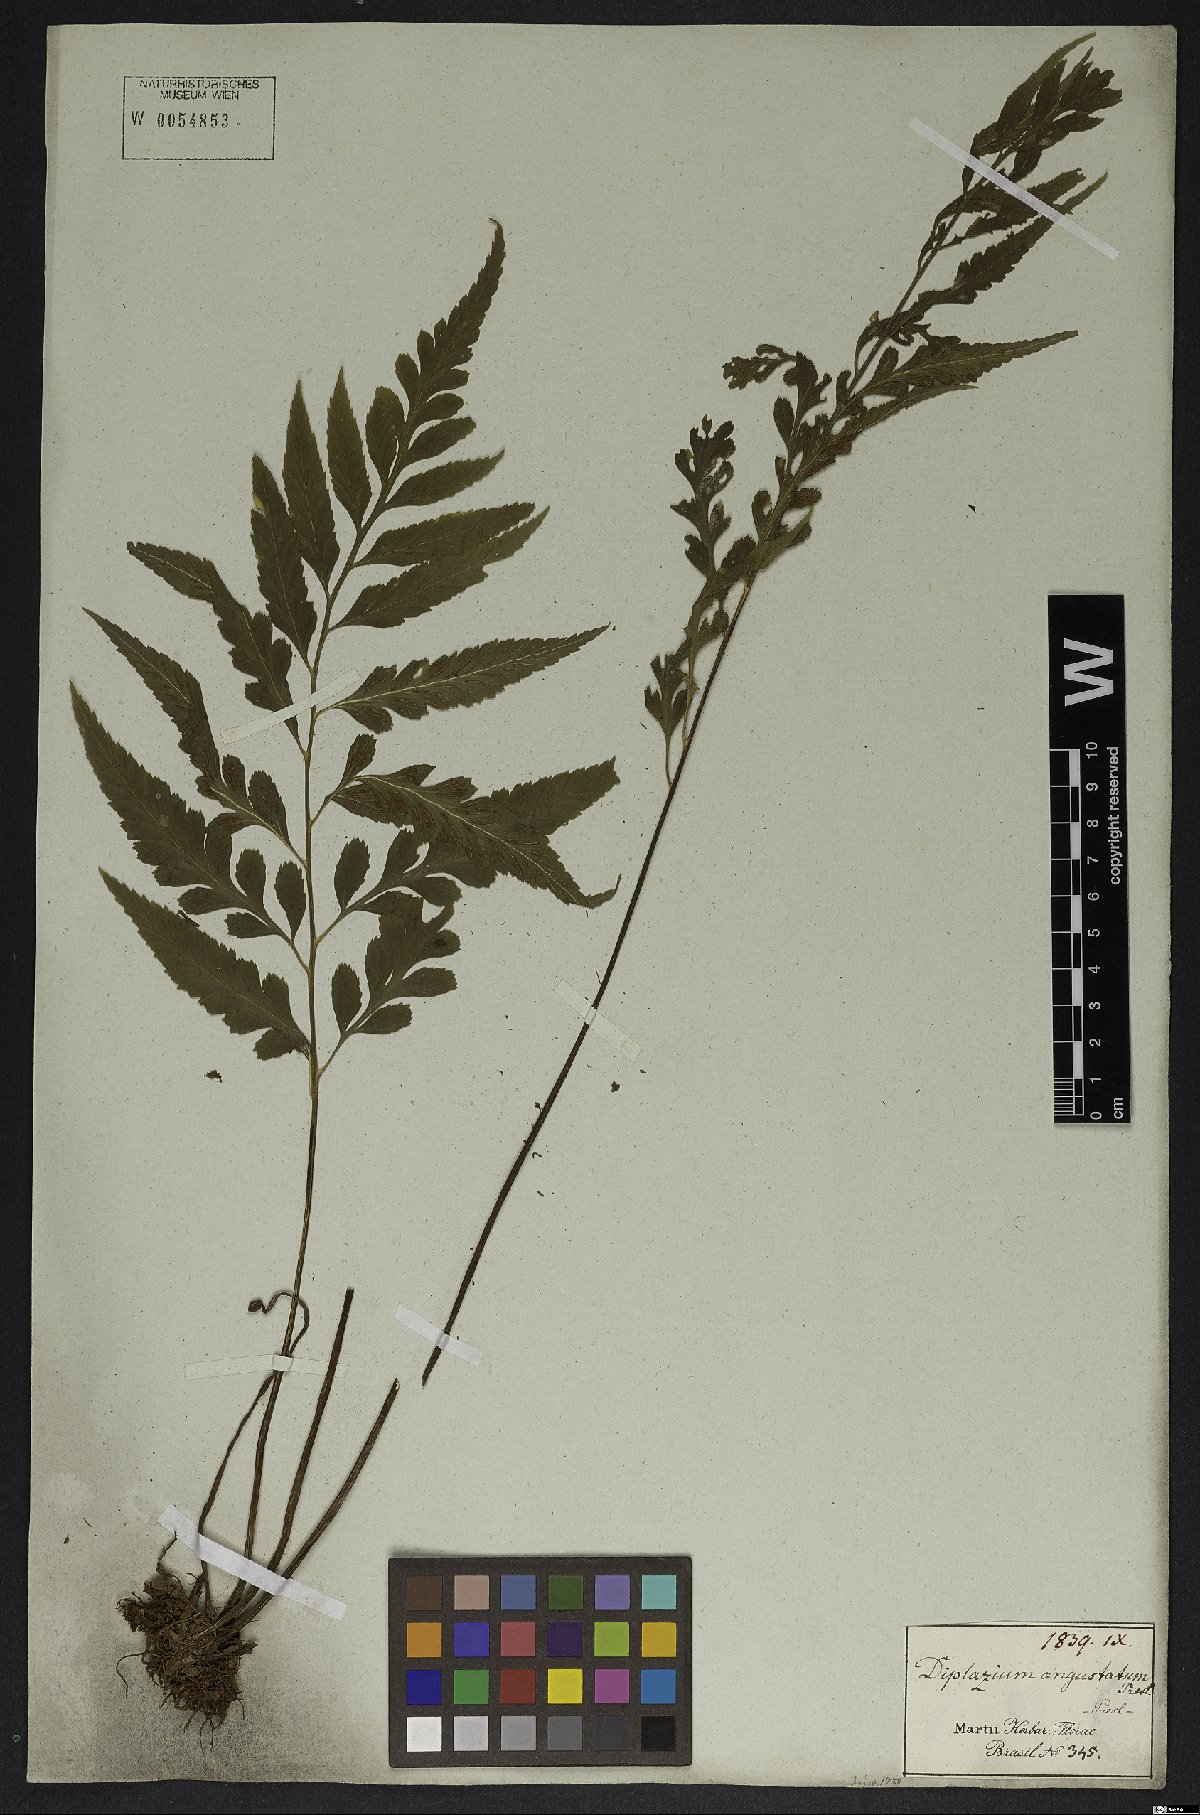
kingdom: Plantae
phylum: Tracheophyta
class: Polypodiopsida
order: Polypodiales
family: Aspleniaceae
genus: Asplenium
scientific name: Asplenium austrobrasiliense
